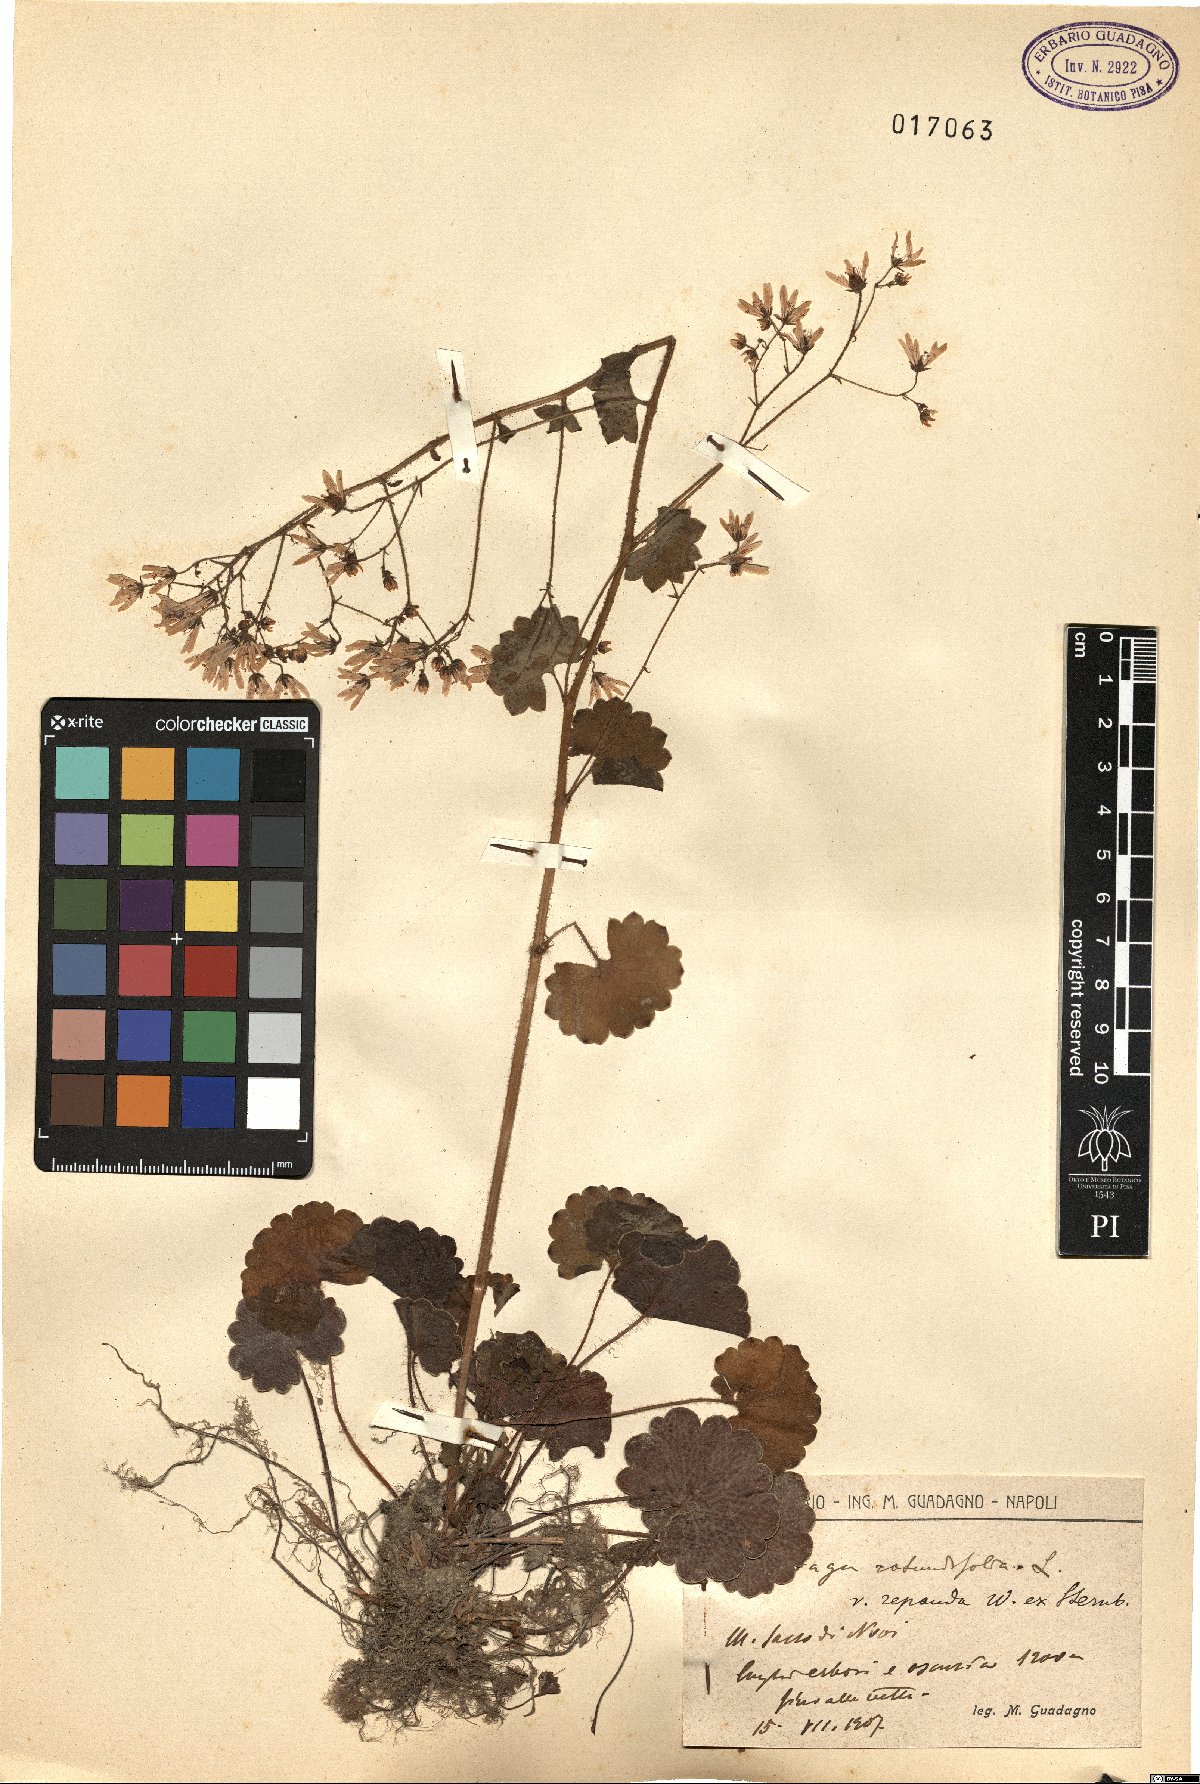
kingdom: Plantae
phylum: Tracheophyta
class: Magnoliopsida
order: Saxifragales
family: Saxifragaceae
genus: Saxifraga
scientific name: Saxifraga rotundifolia
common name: Round-leaved saxifrage
